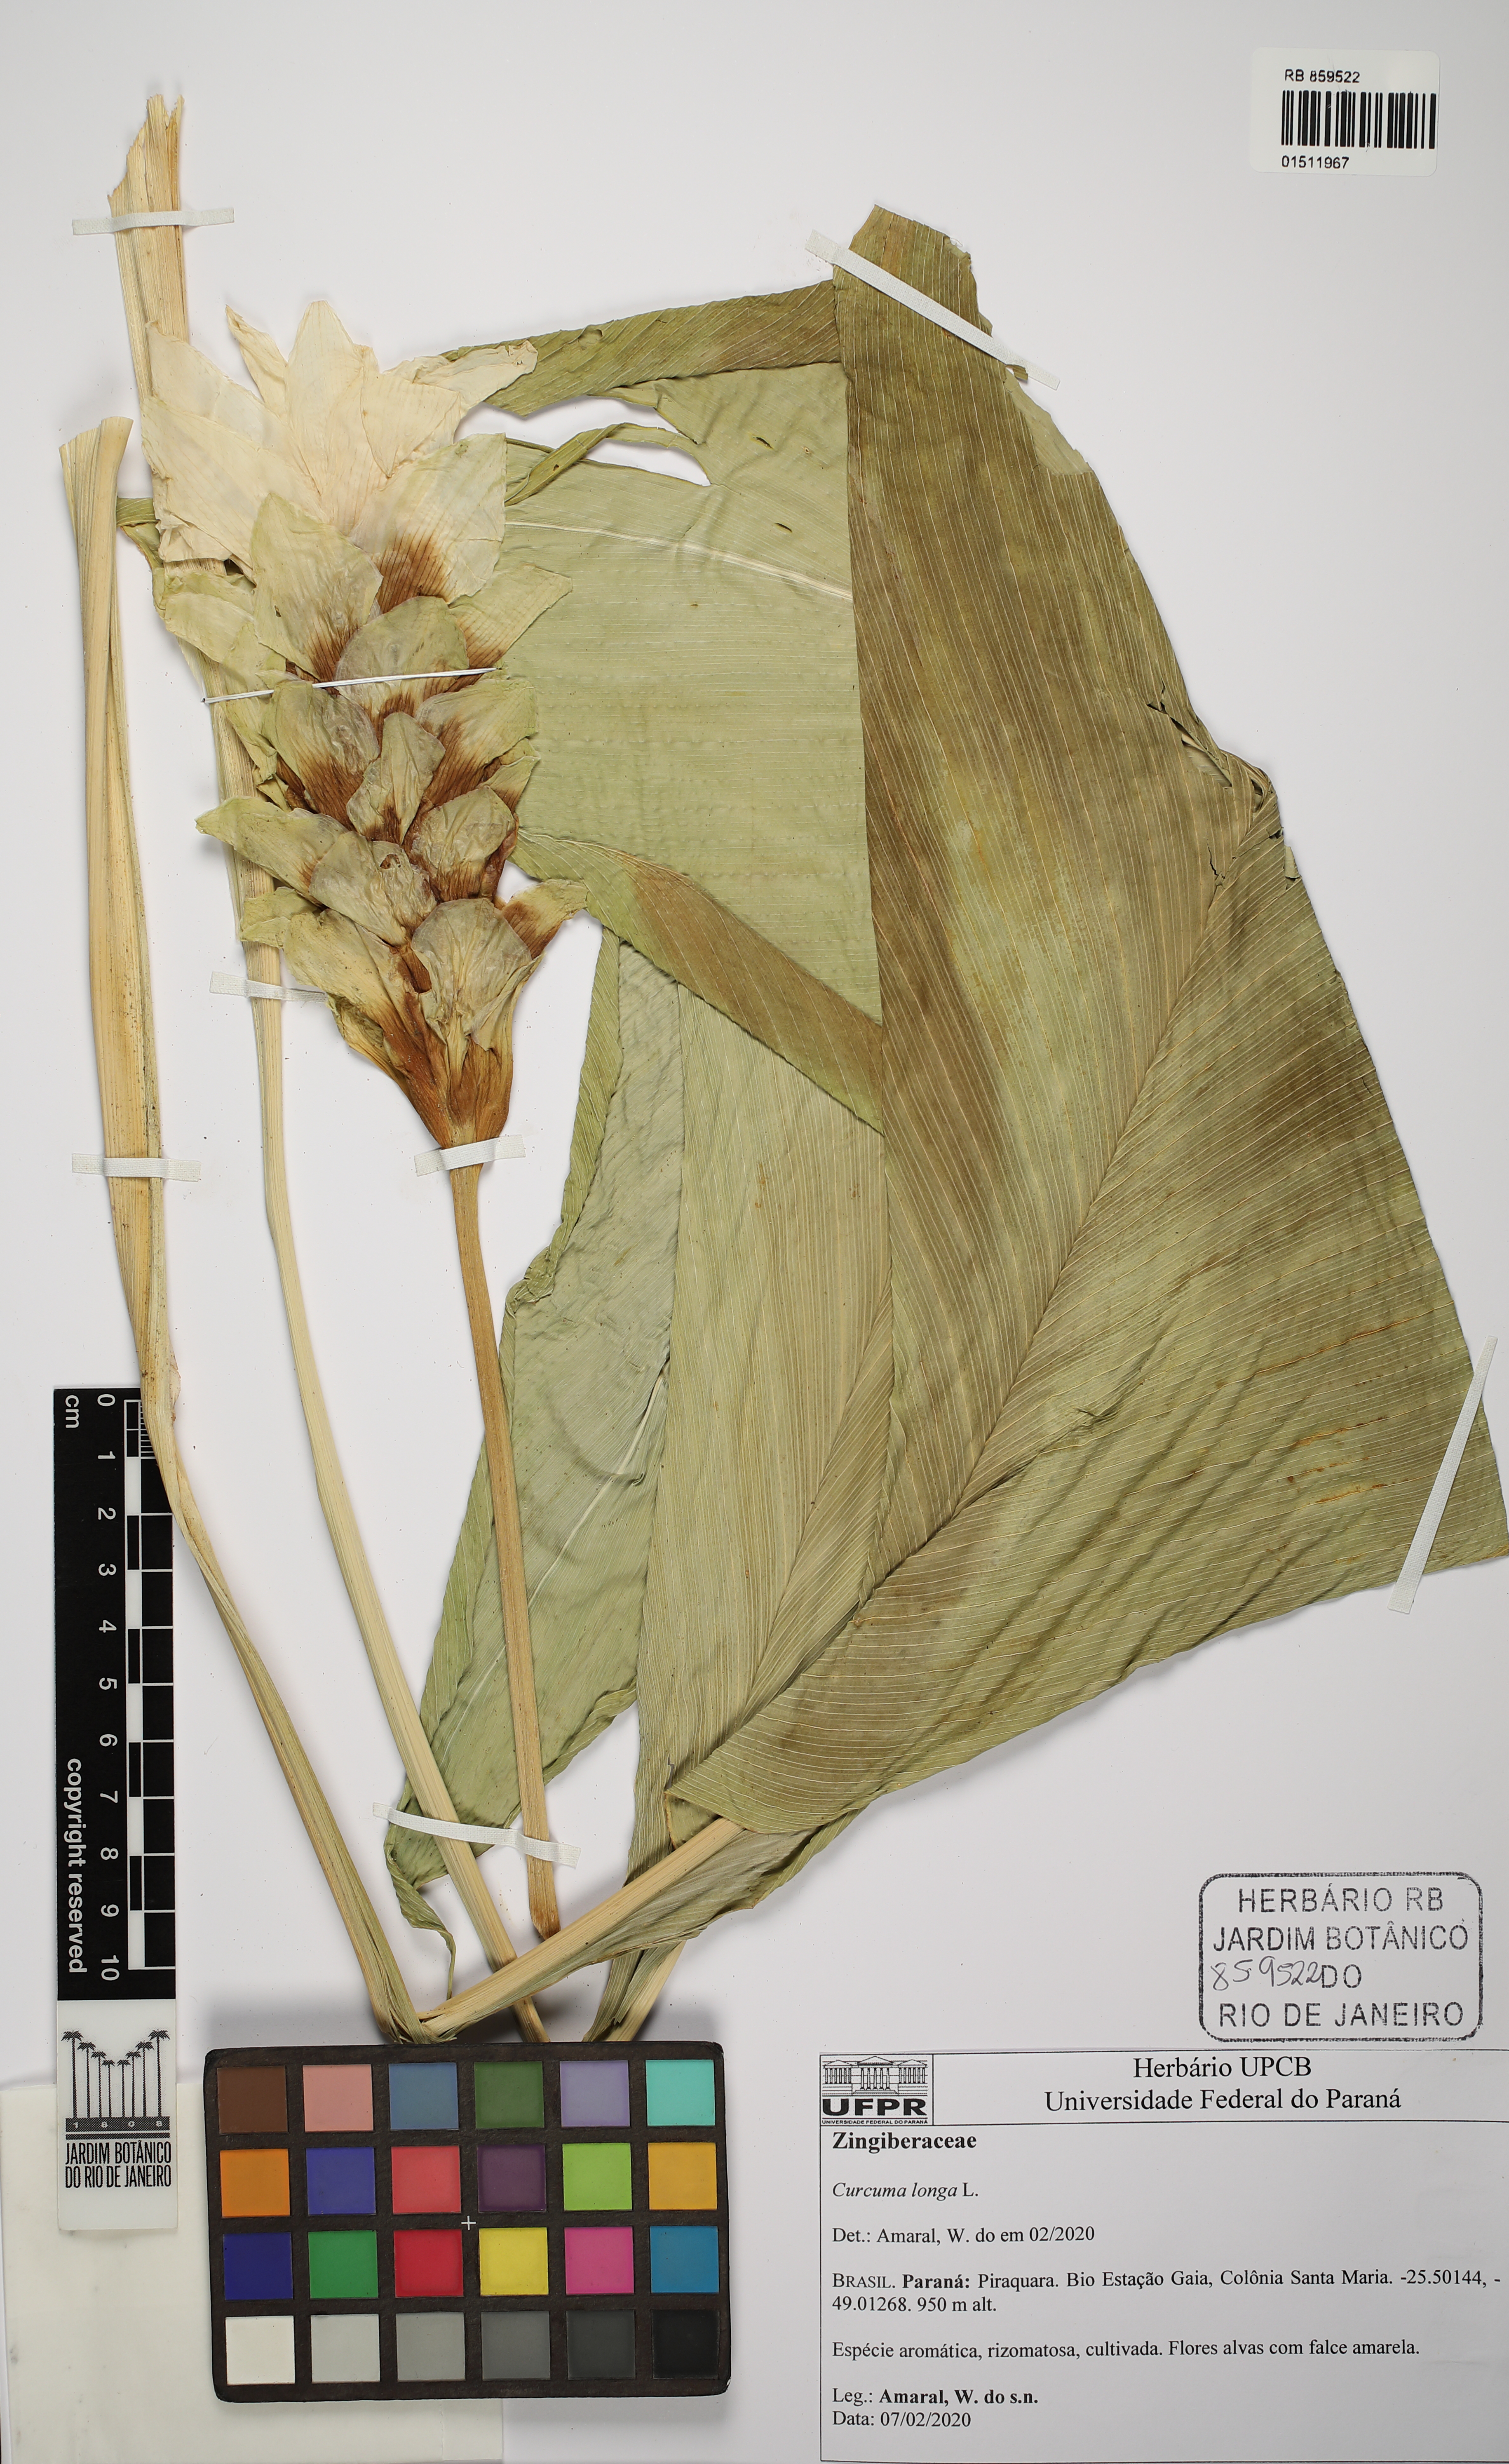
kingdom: Plantae
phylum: Tracheophyta
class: Liliopsida
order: Zingiberales
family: Zingiberaceae
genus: Curcuma
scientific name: Curcuma longa
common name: Turmeric
